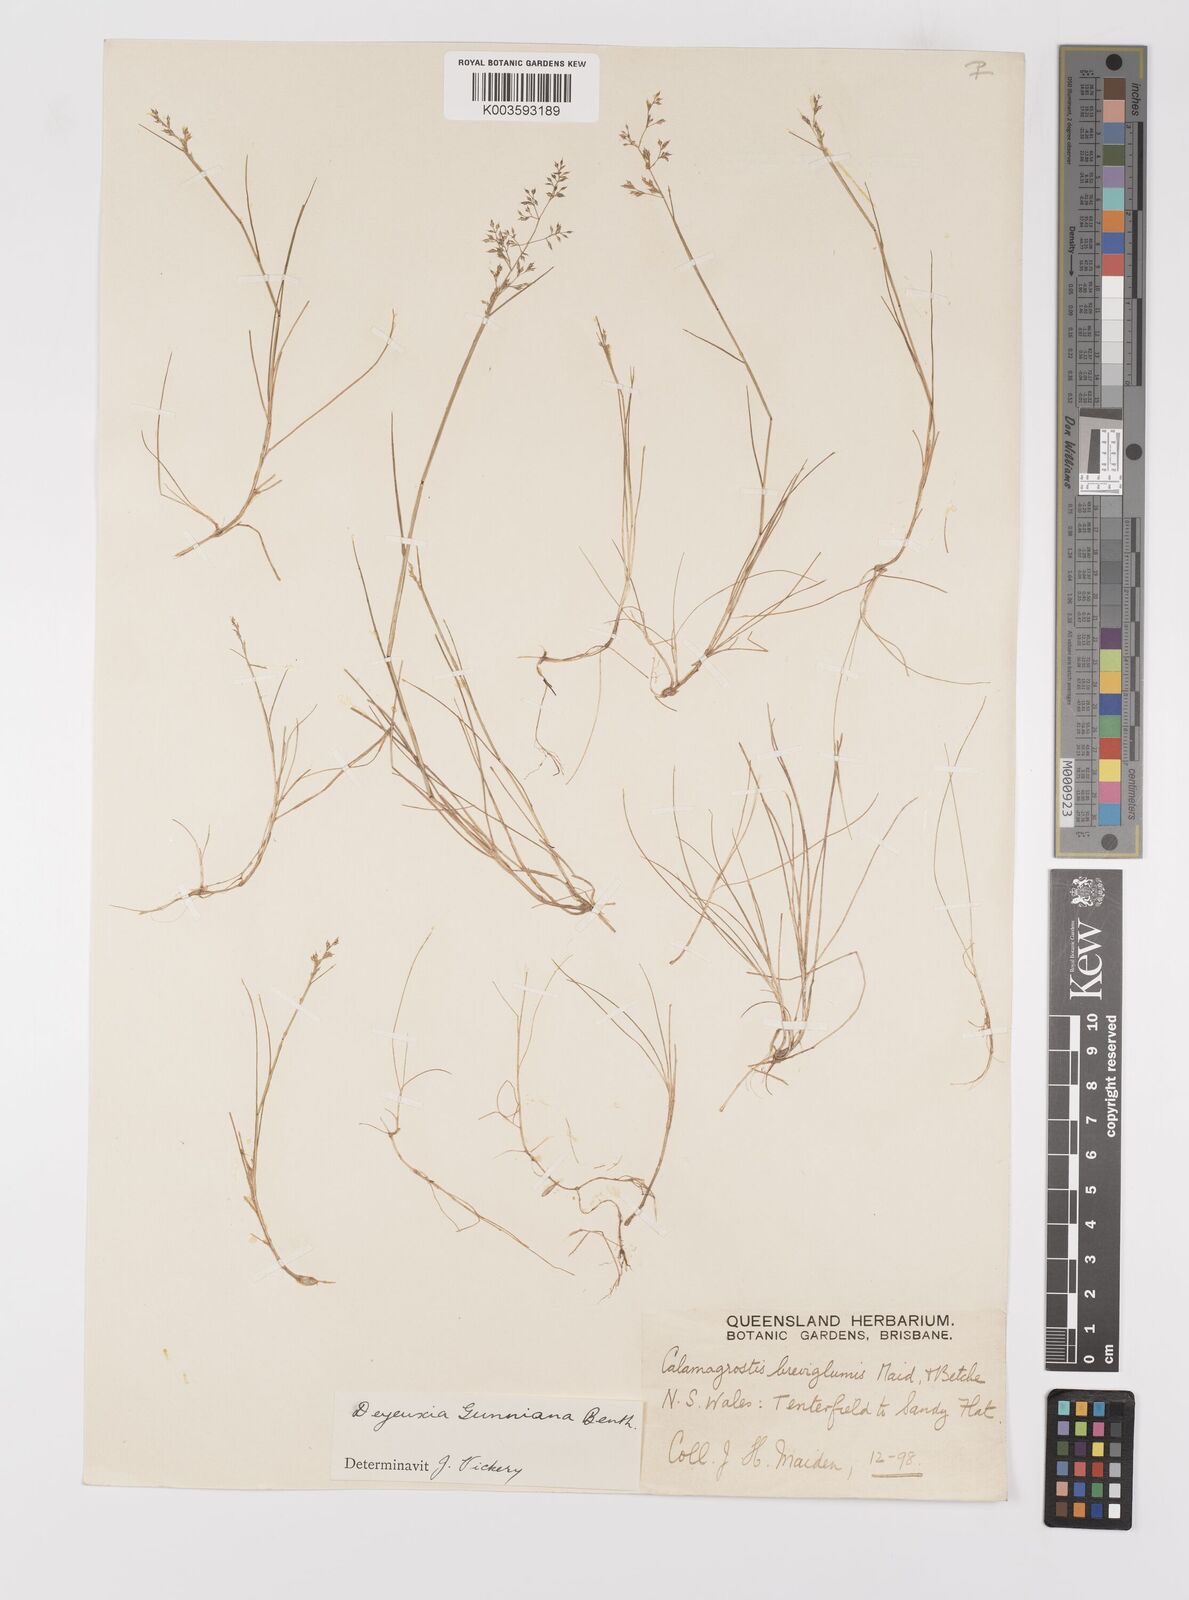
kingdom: Plantae
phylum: Tracheophyta
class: Liliopsida
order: Poales
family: Poaceae
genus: Ancistragrostis
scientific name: Ancistragrostis
